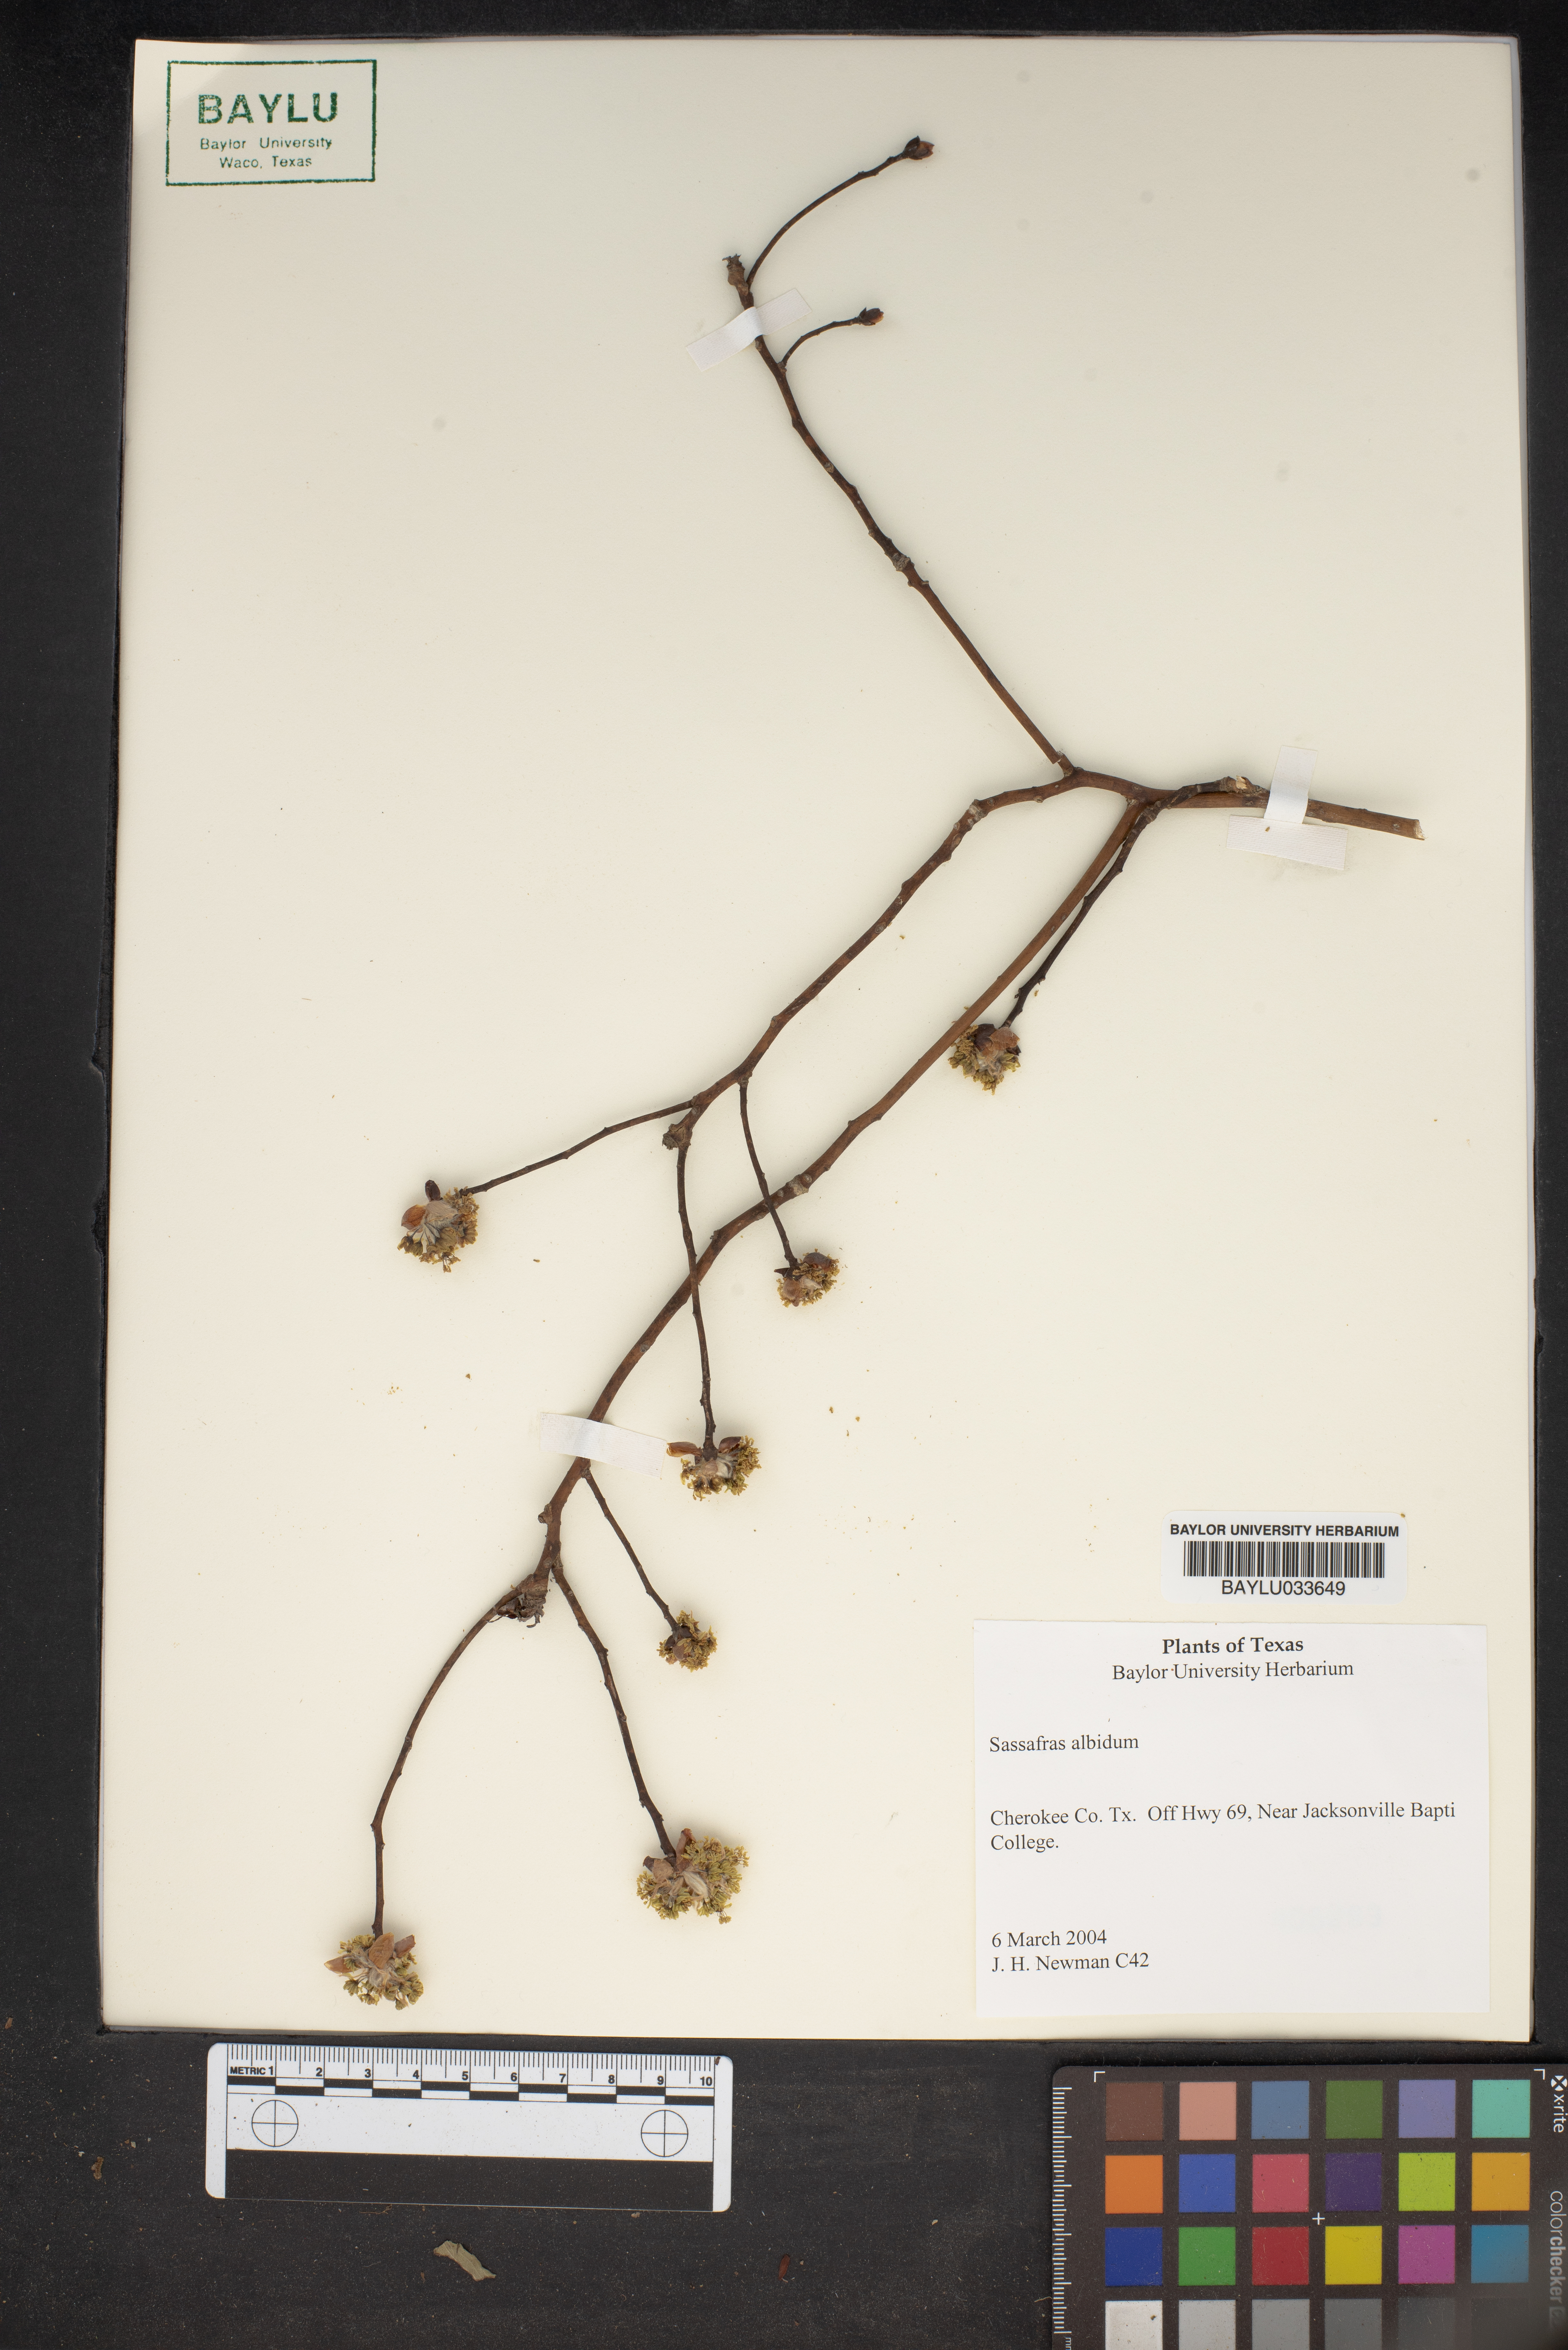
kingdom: Plantae
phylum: Tracheophyta
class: Magnoliopsida
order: Laurales
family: Lauraceae
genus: Sassafras
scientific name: Sassafras albidum
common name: Sassafras
